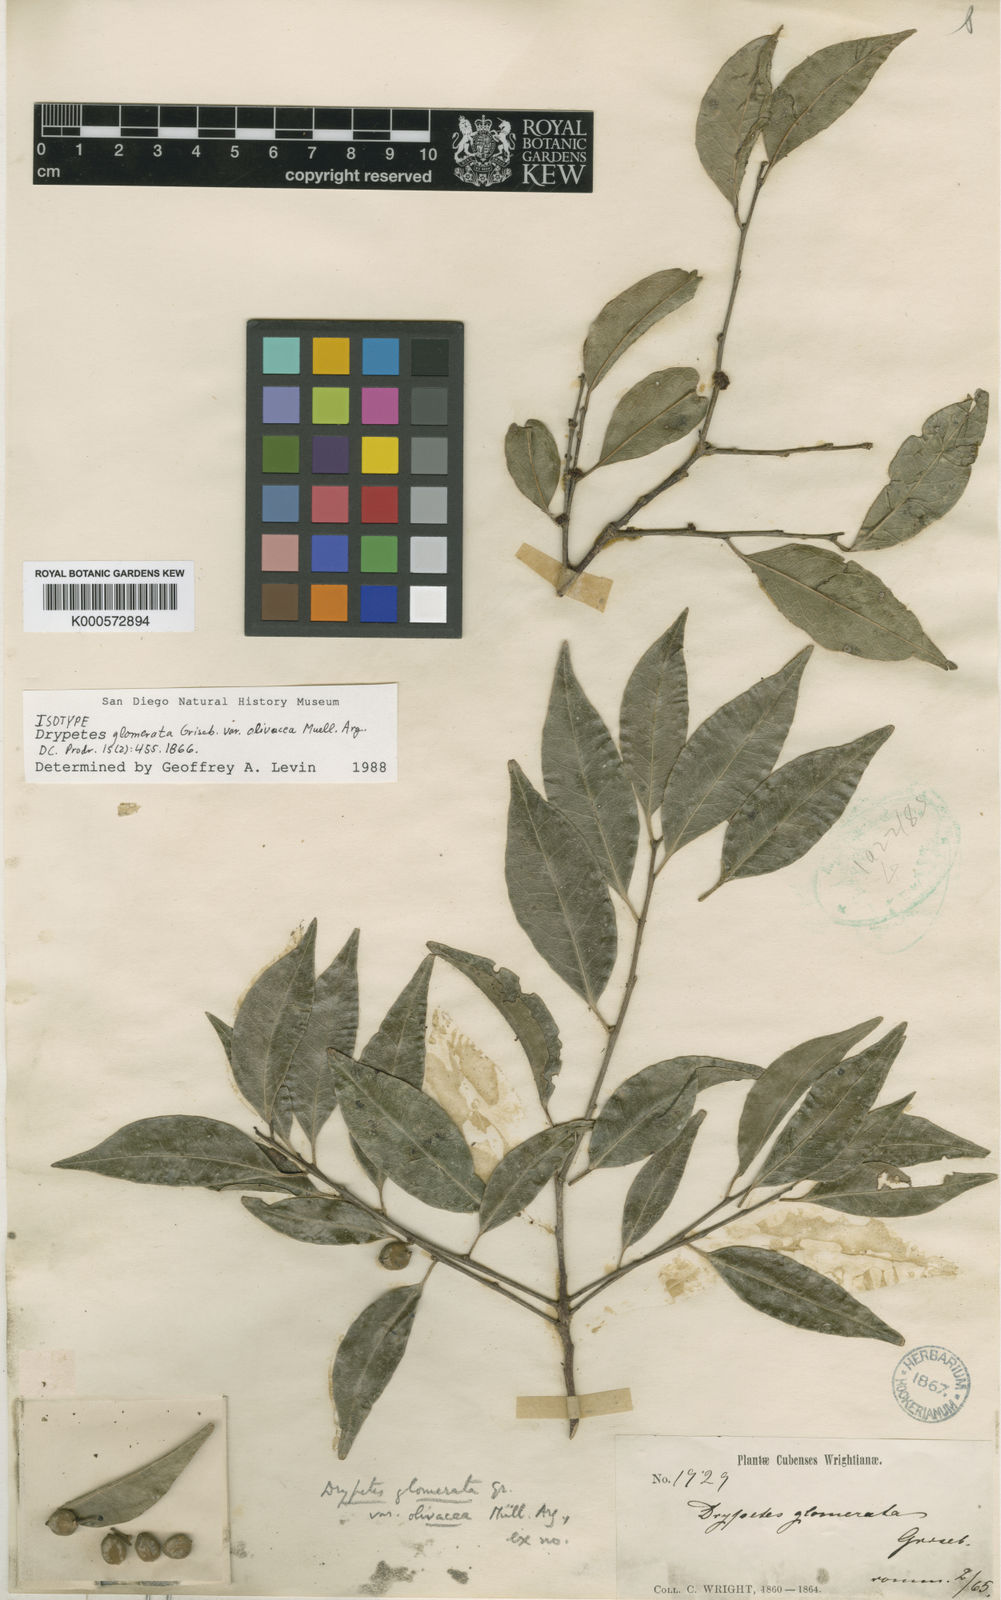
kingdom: Plantae
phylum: Tracheophyta
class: Magnoliopsida
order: Malpighiales
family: Putranjivaceae
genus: Drypetes
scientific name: Drypetes alba
